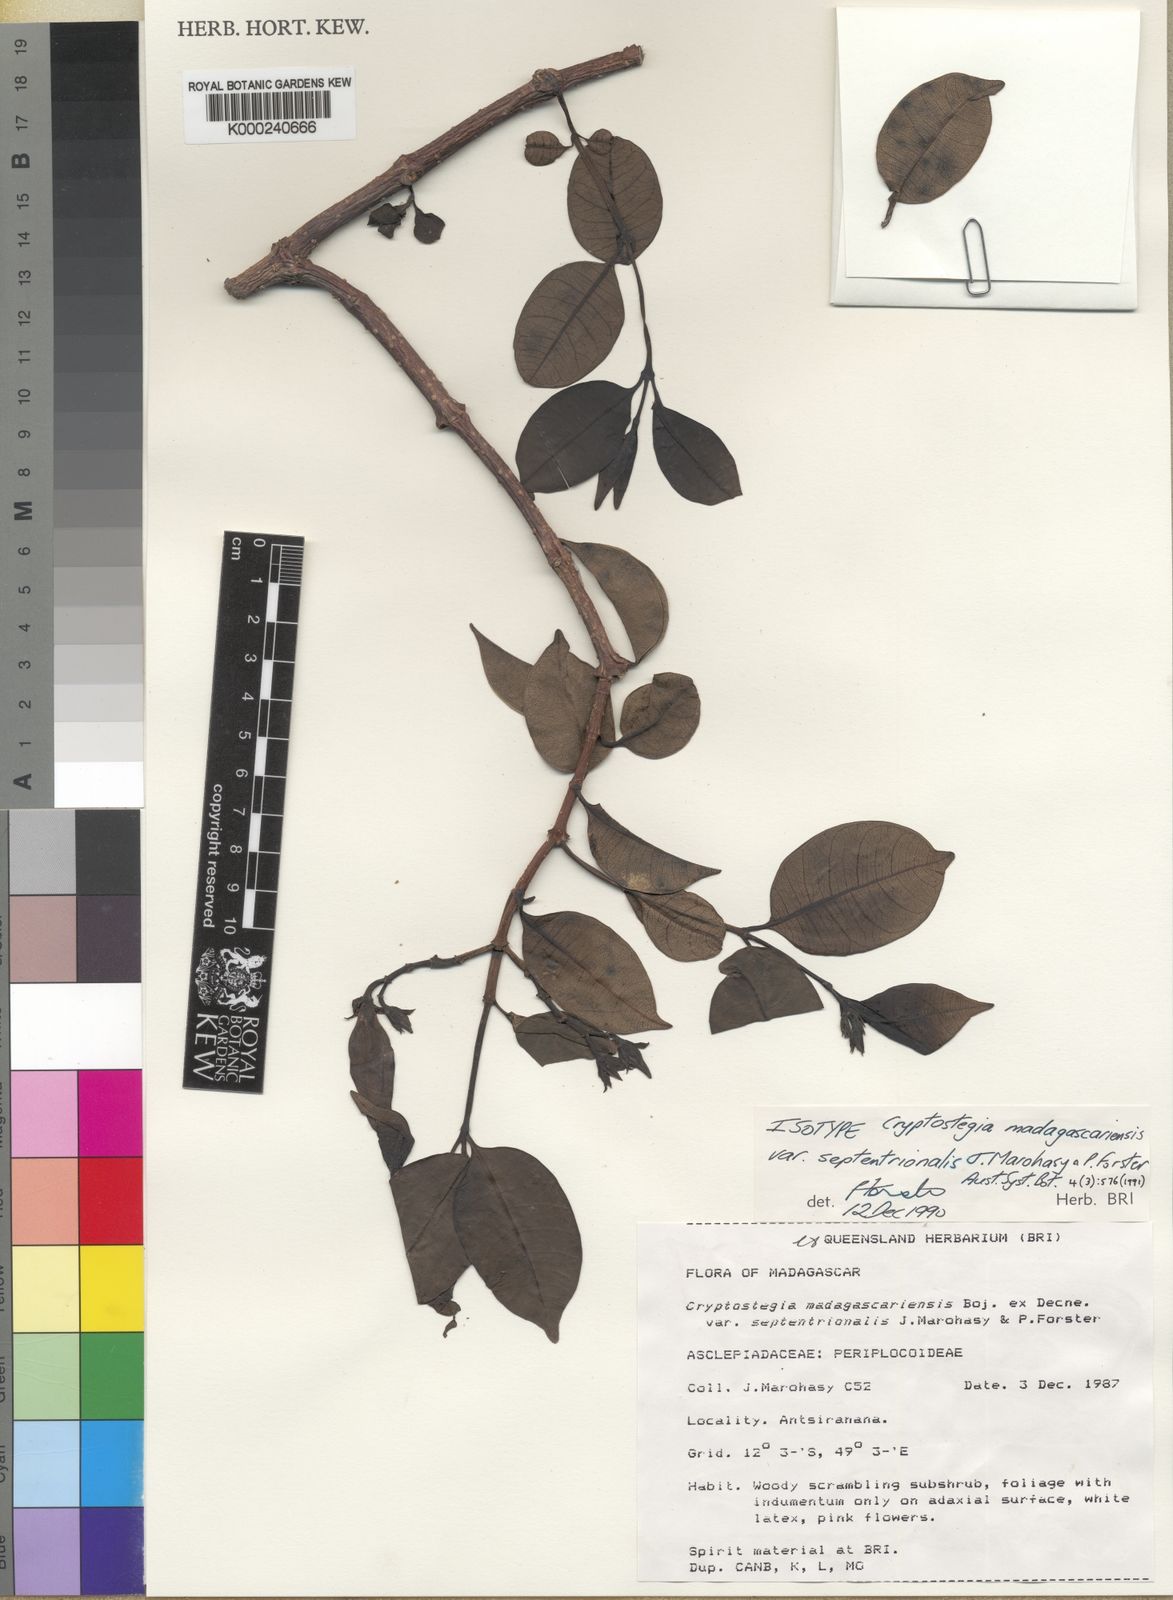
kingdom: Plantae
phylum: Tracheophyta
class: Magnoliopsida
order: Gentianales
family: Apocynaceae
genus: Cryptostegia
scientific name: Cryptostegia madagascariensis
